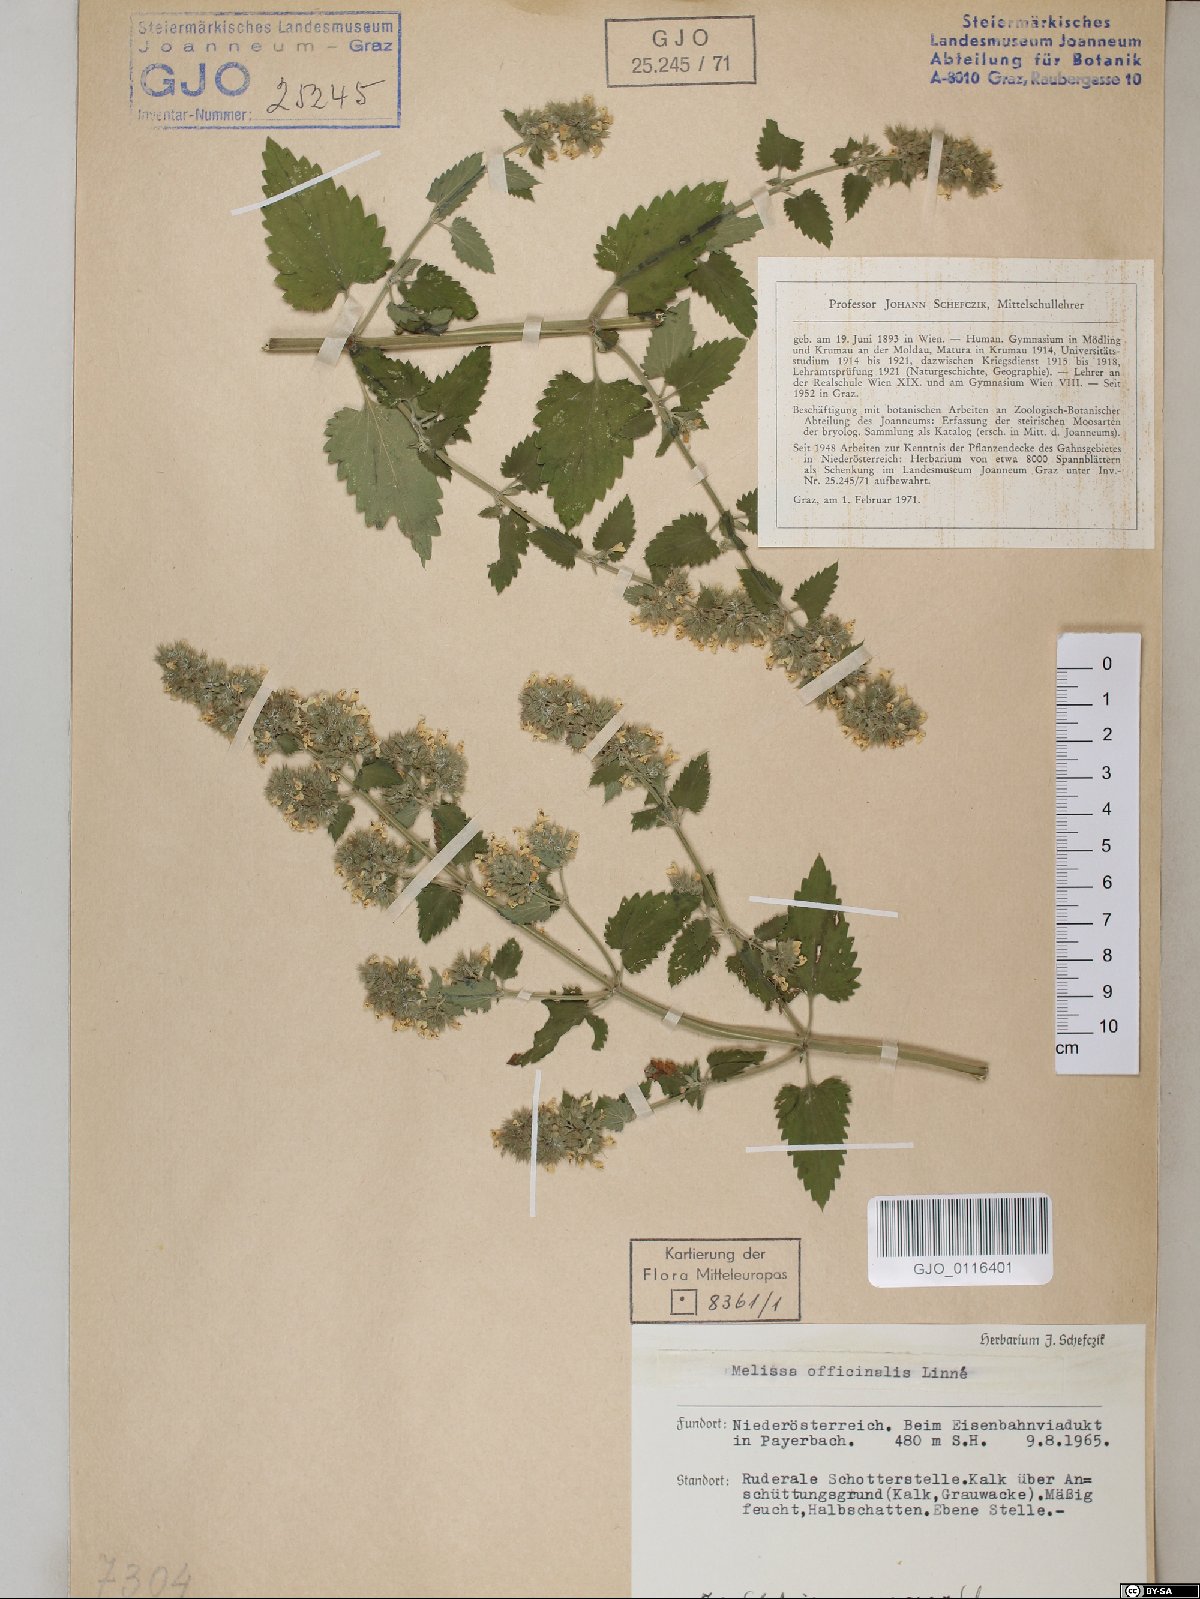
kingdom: Plantae
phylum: Tracheophyta
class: Magnoliopsida
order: Lamiales
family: Lamiaceae
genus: Nepeta
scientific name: Nepeta cataria
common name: Catnip
